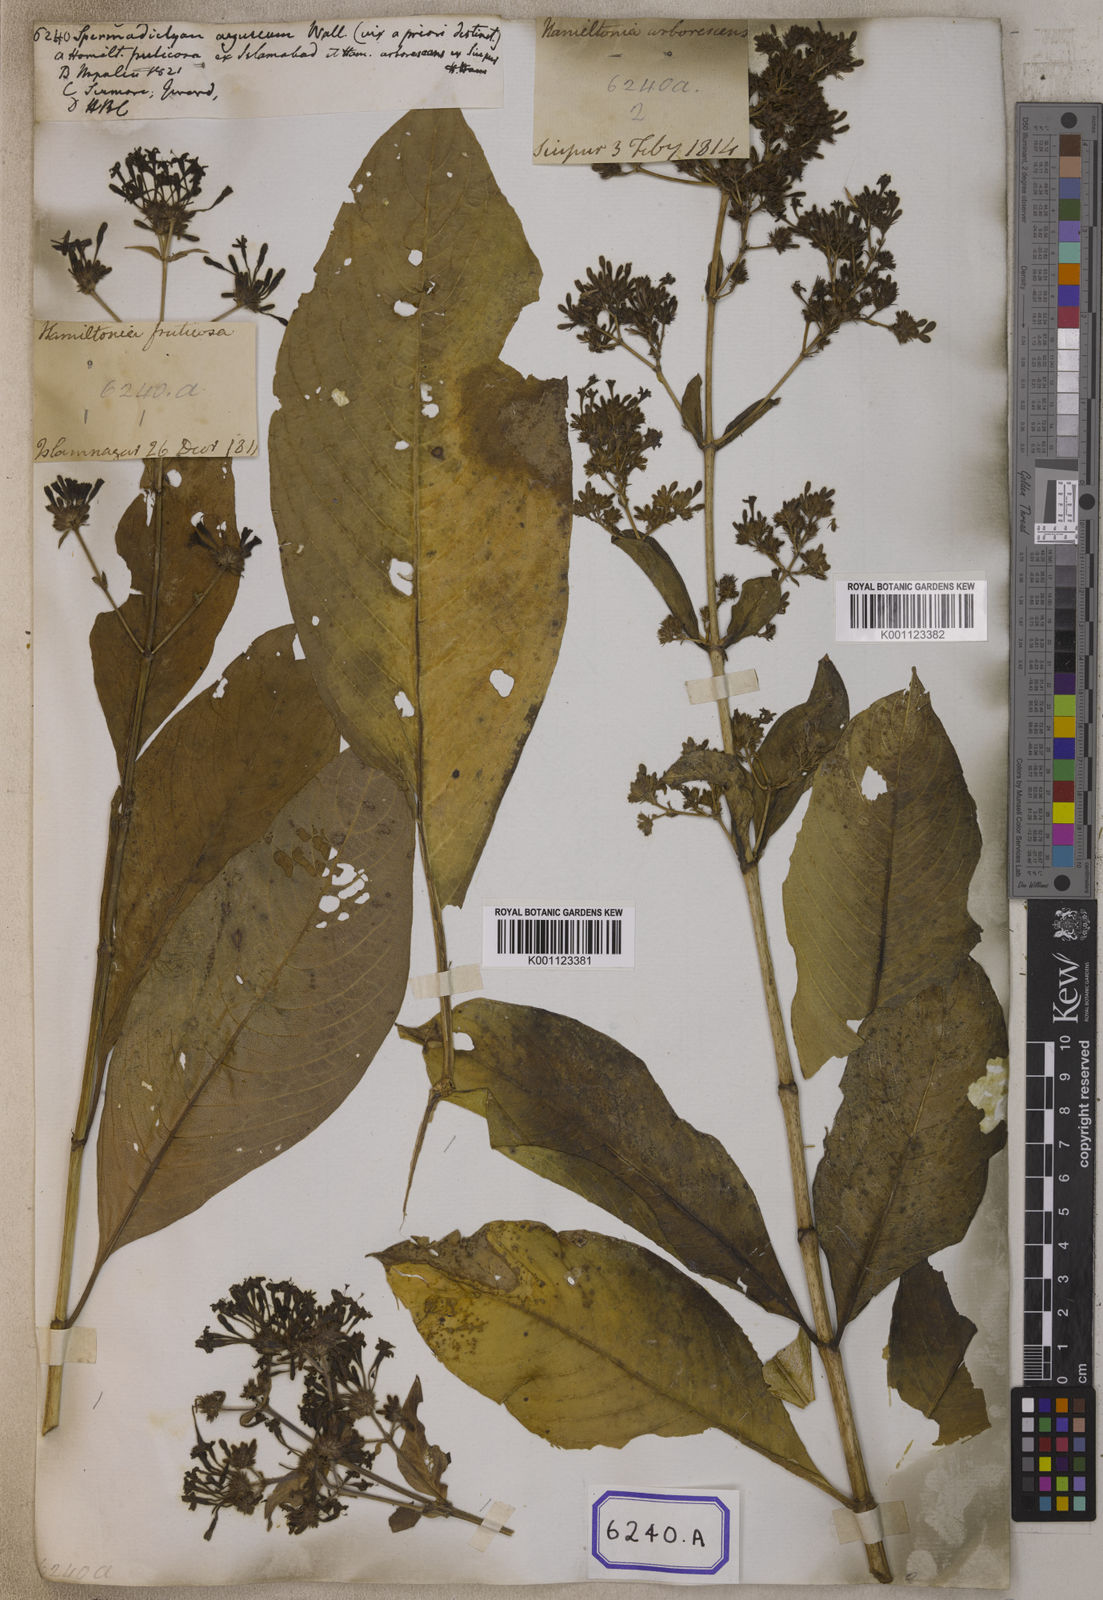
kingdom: Plantae
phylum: Tracheophyta
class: Magnoliopsida
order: Gentianales
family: Rubiaceae
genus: Spermadictyon
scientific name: Spermadictyon suaveolens
